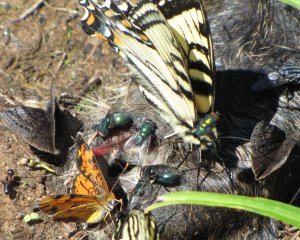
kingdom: Animalia
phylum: Arthropoda
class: Insecta
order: Lepidoptera
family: Hesperiidae
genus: Erynnis
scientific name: Erynnis icelus
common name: Dreamy Duskywing
